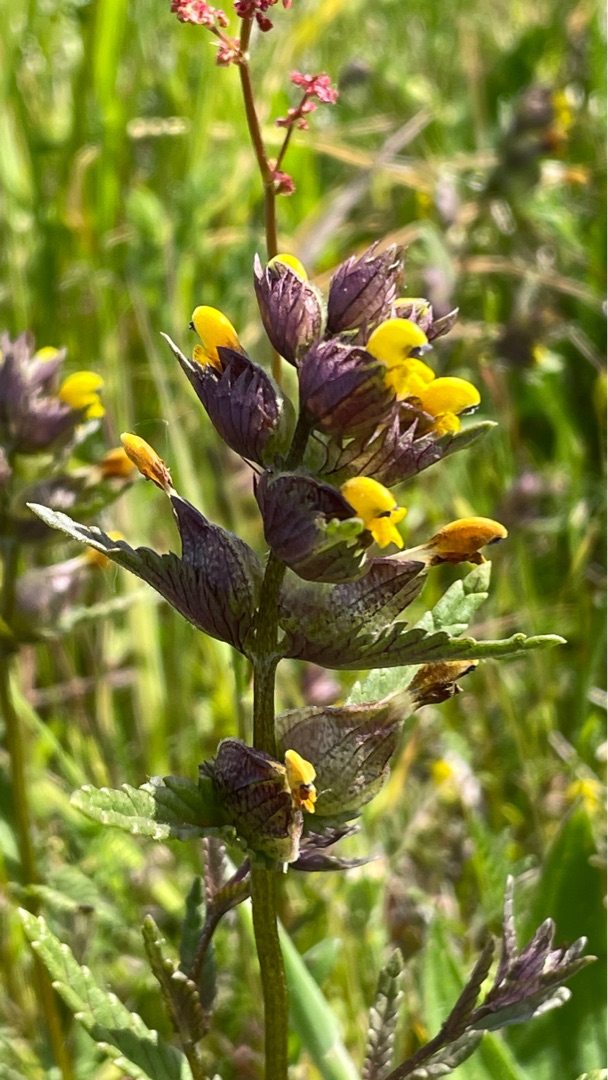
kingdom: Plantae
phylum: Tracheophyta
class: Magnoliopsida
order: Lamiales
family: Orobanchaceae
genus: Rhinanthus
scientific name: Rhinanthus minor
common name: Liden skjaller
